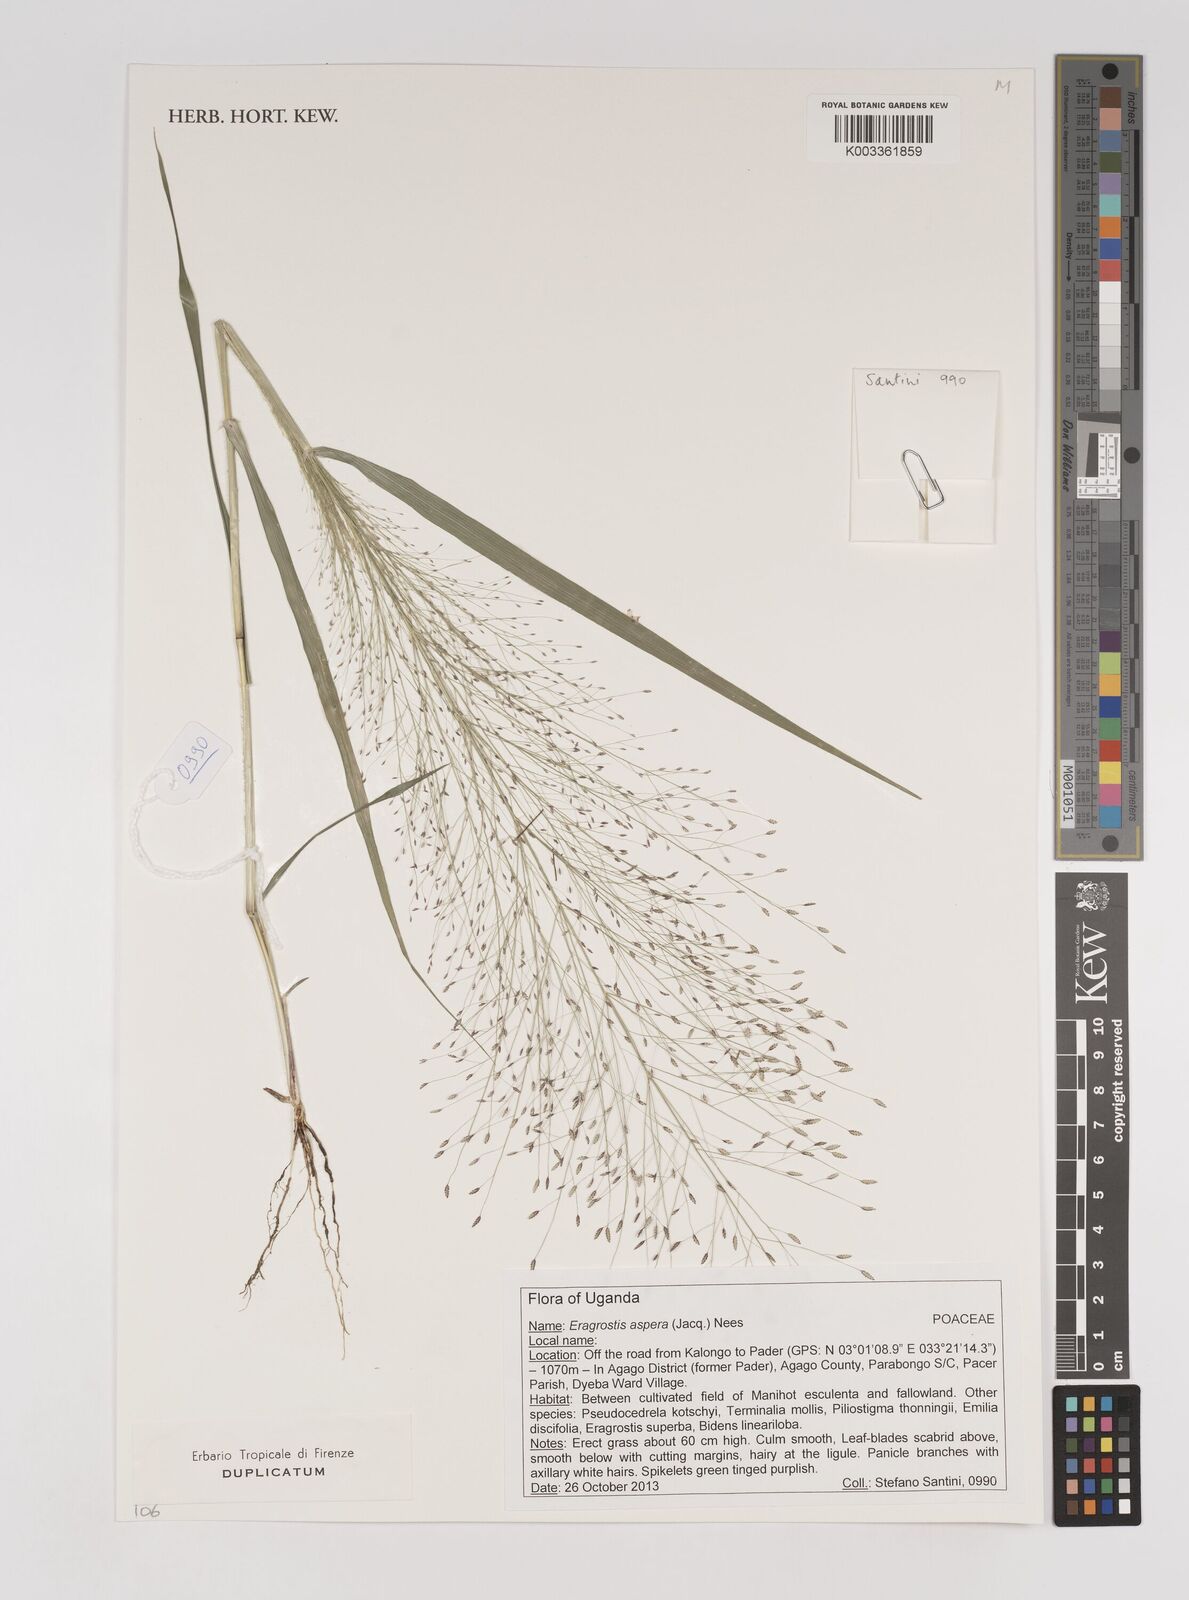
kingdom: Plantae
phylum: Tracheophyta
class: Liliopsida
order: Poales
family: Poaceae
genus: Eragrostis
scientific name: Eragrostis aspera
